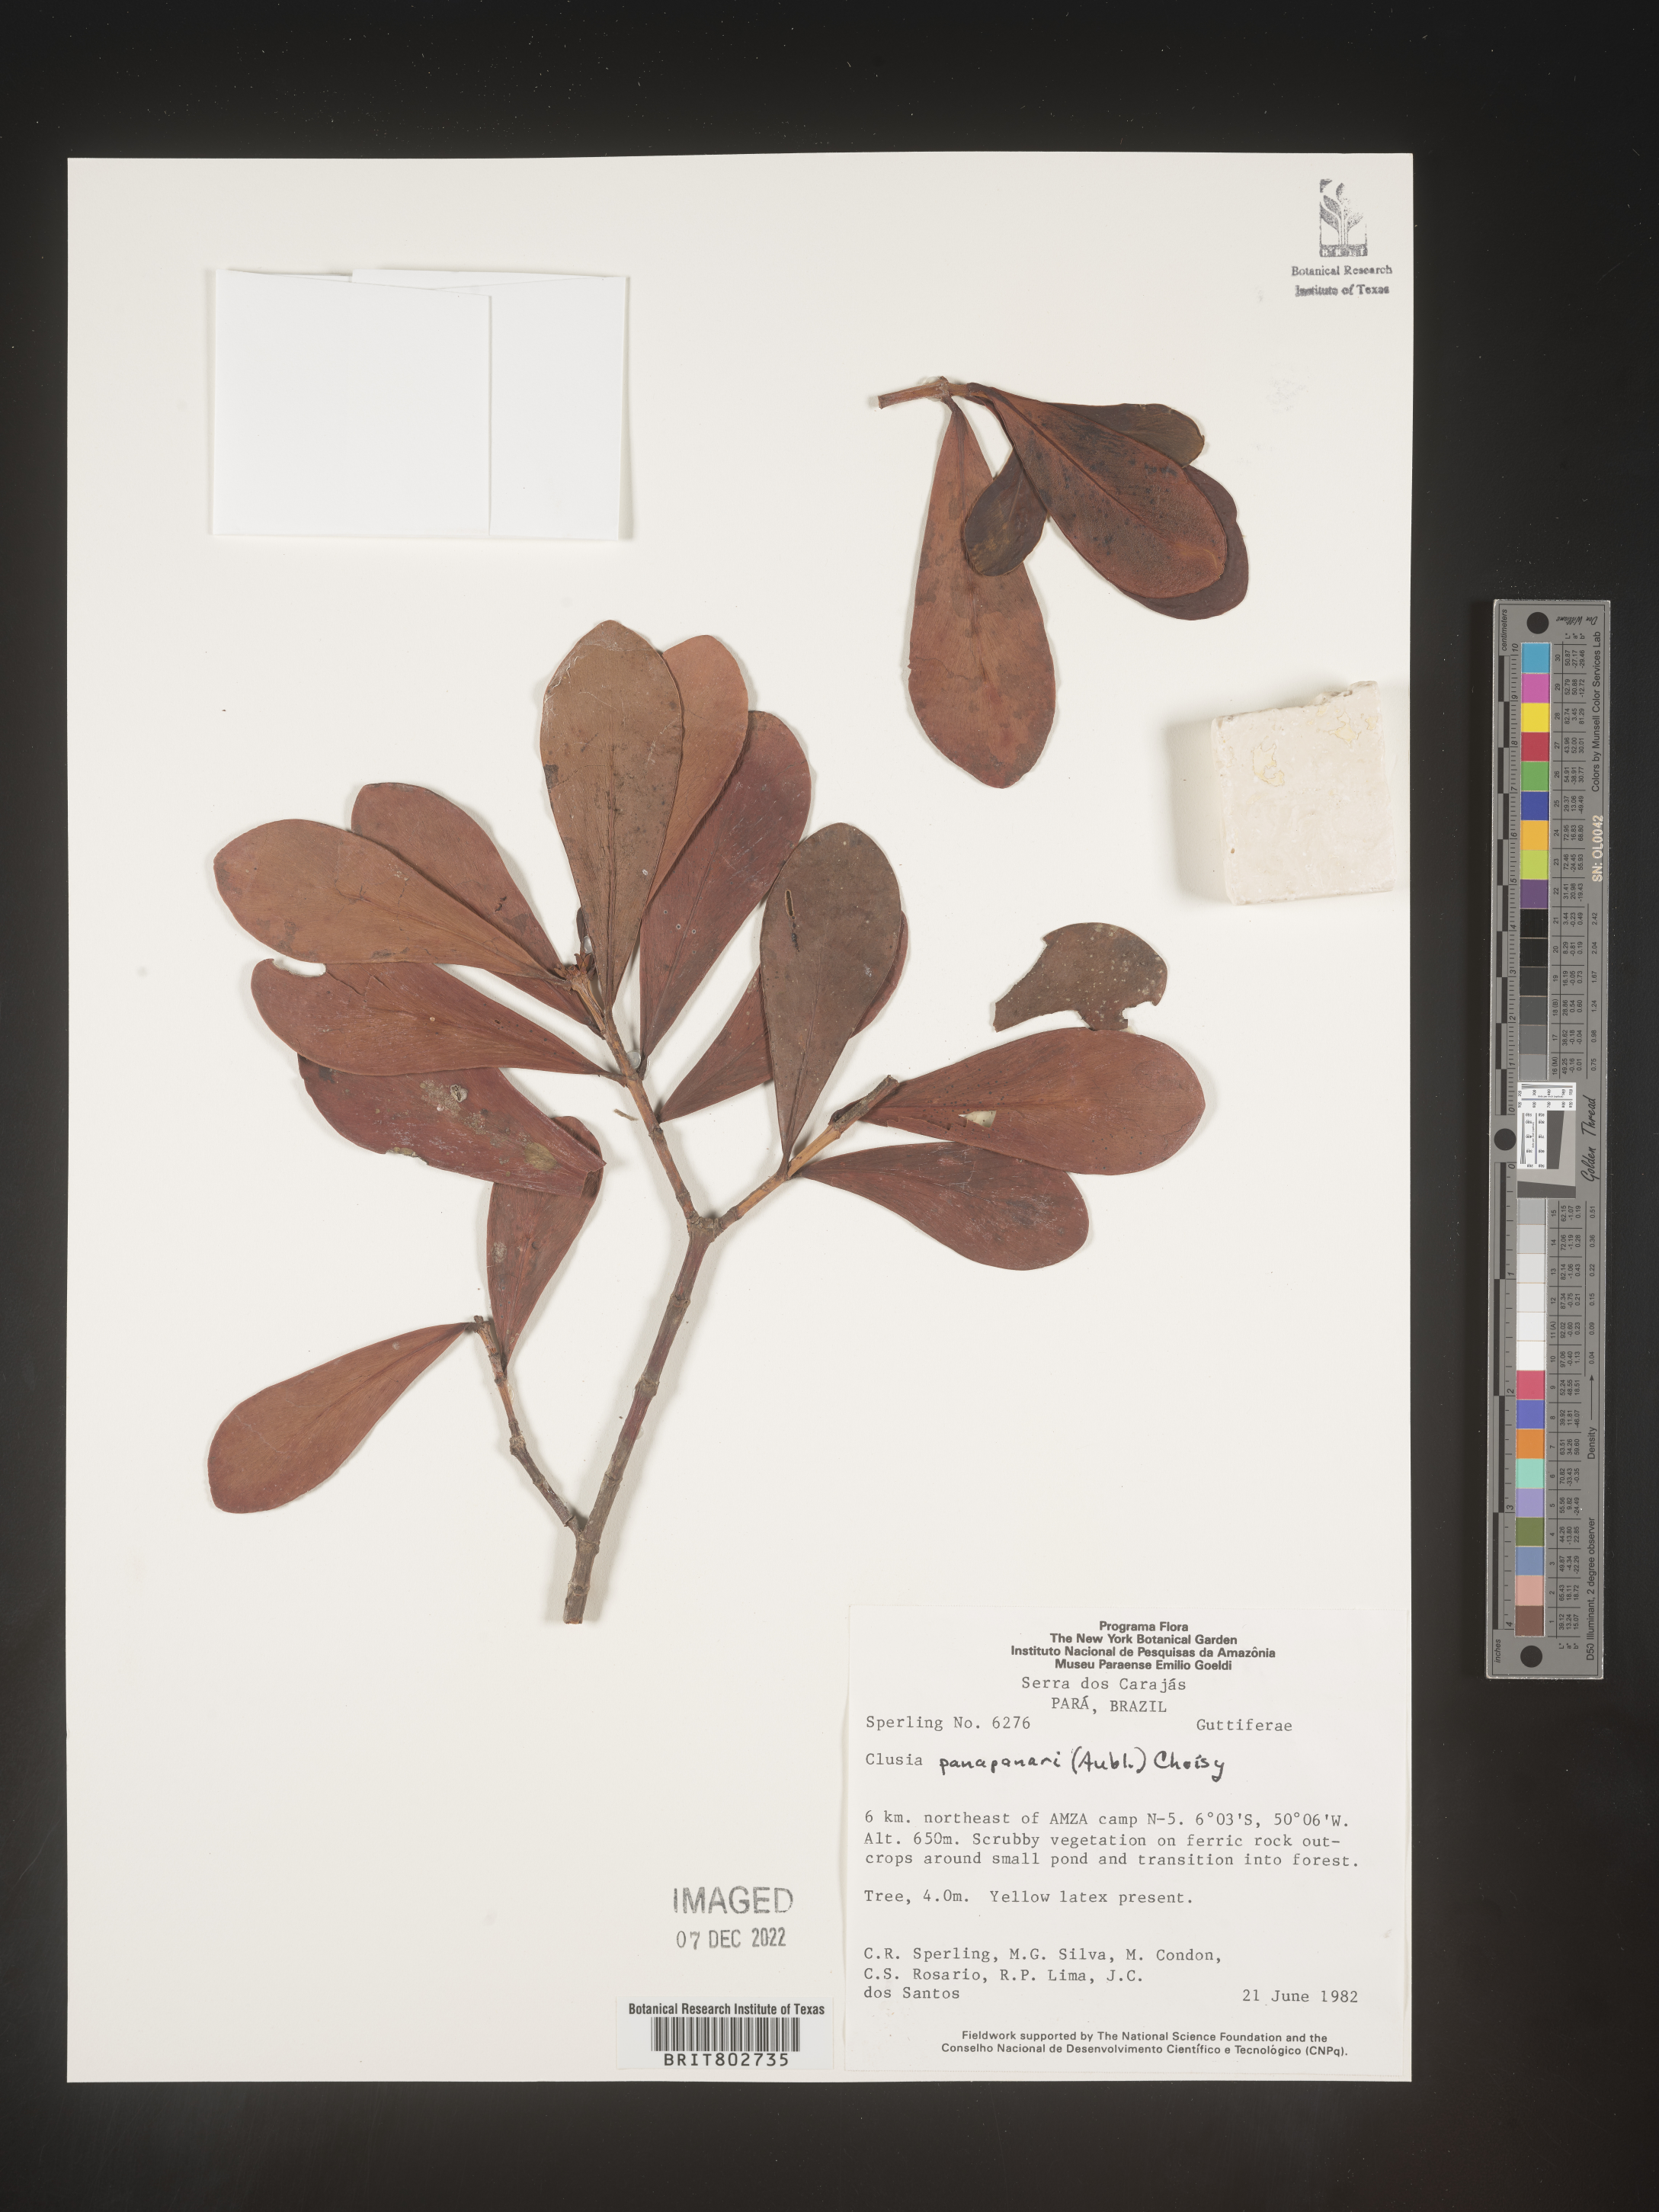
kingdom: Plantae
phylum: Tracheophyta
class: Magnoliopsida
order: Malpighiales
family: Clusiaceae
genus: Clusia
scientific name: Clusia panapanari
